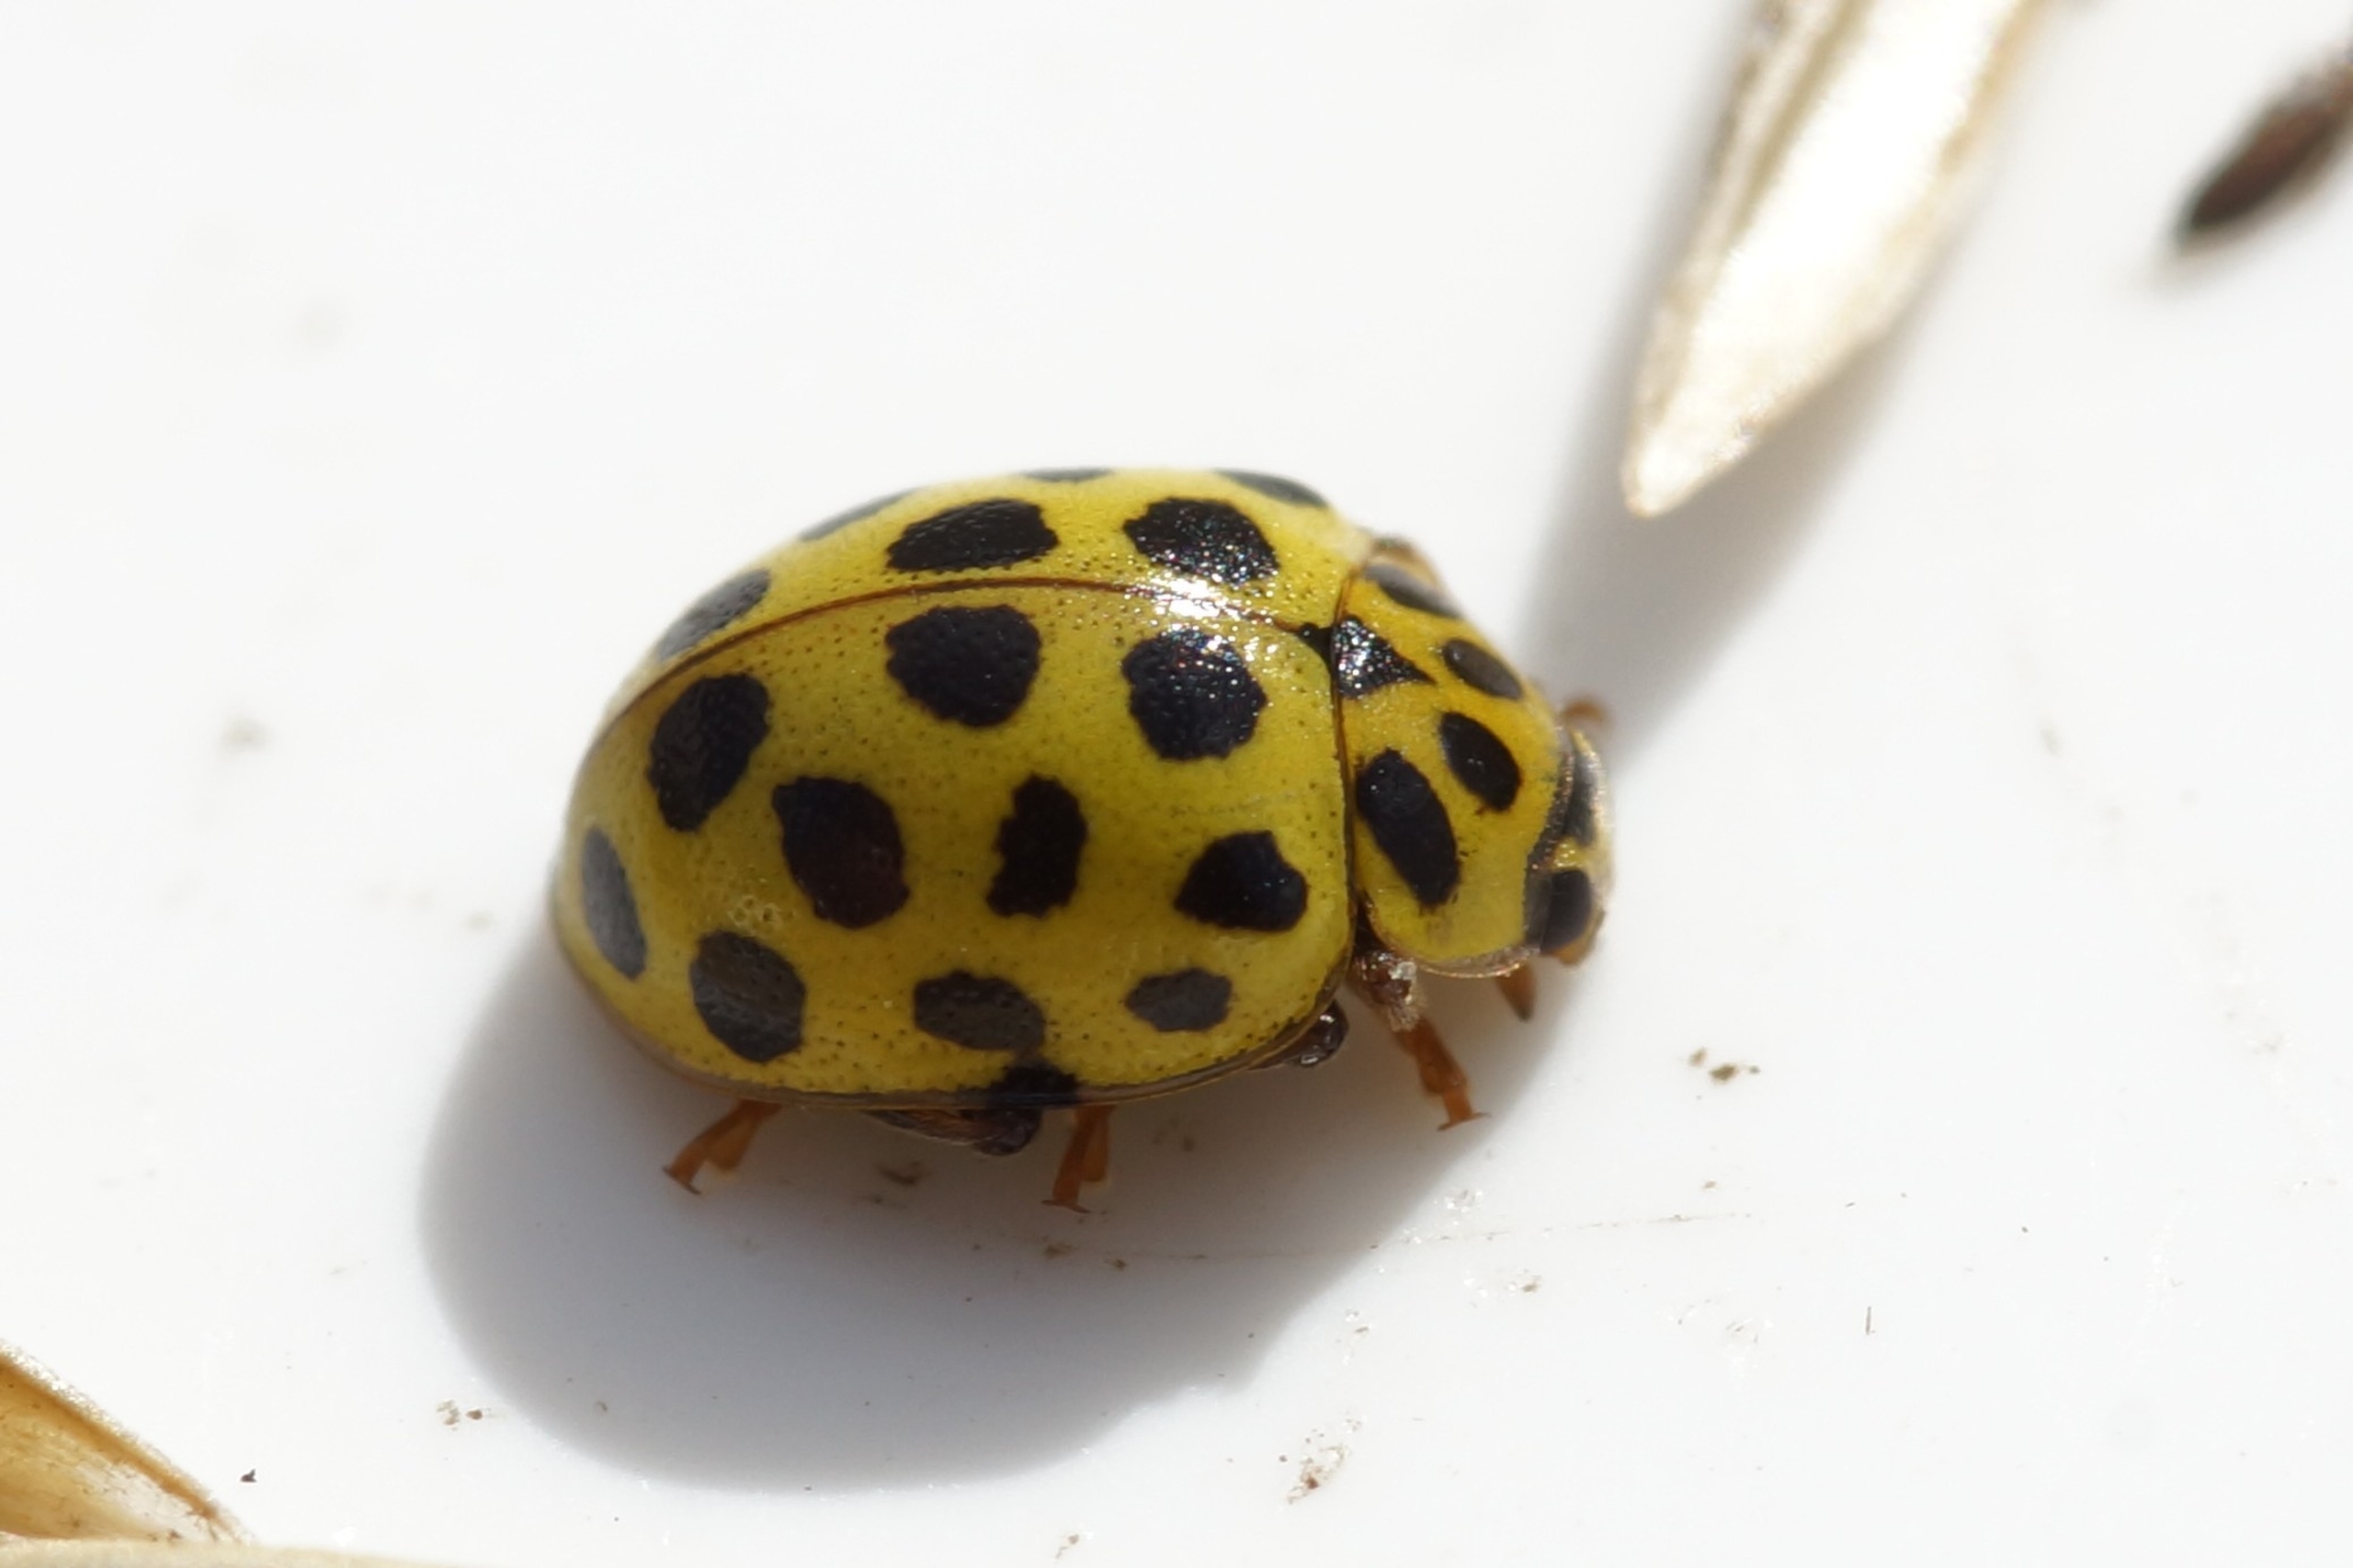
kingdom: Animalia
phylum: Arthropoda
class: Insecta
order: Coleoptera
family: Coccinellidae
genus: Psyllobora
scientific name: Psyllobora vigintiduopunctata
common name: Toogtyveplettet mariehøne
